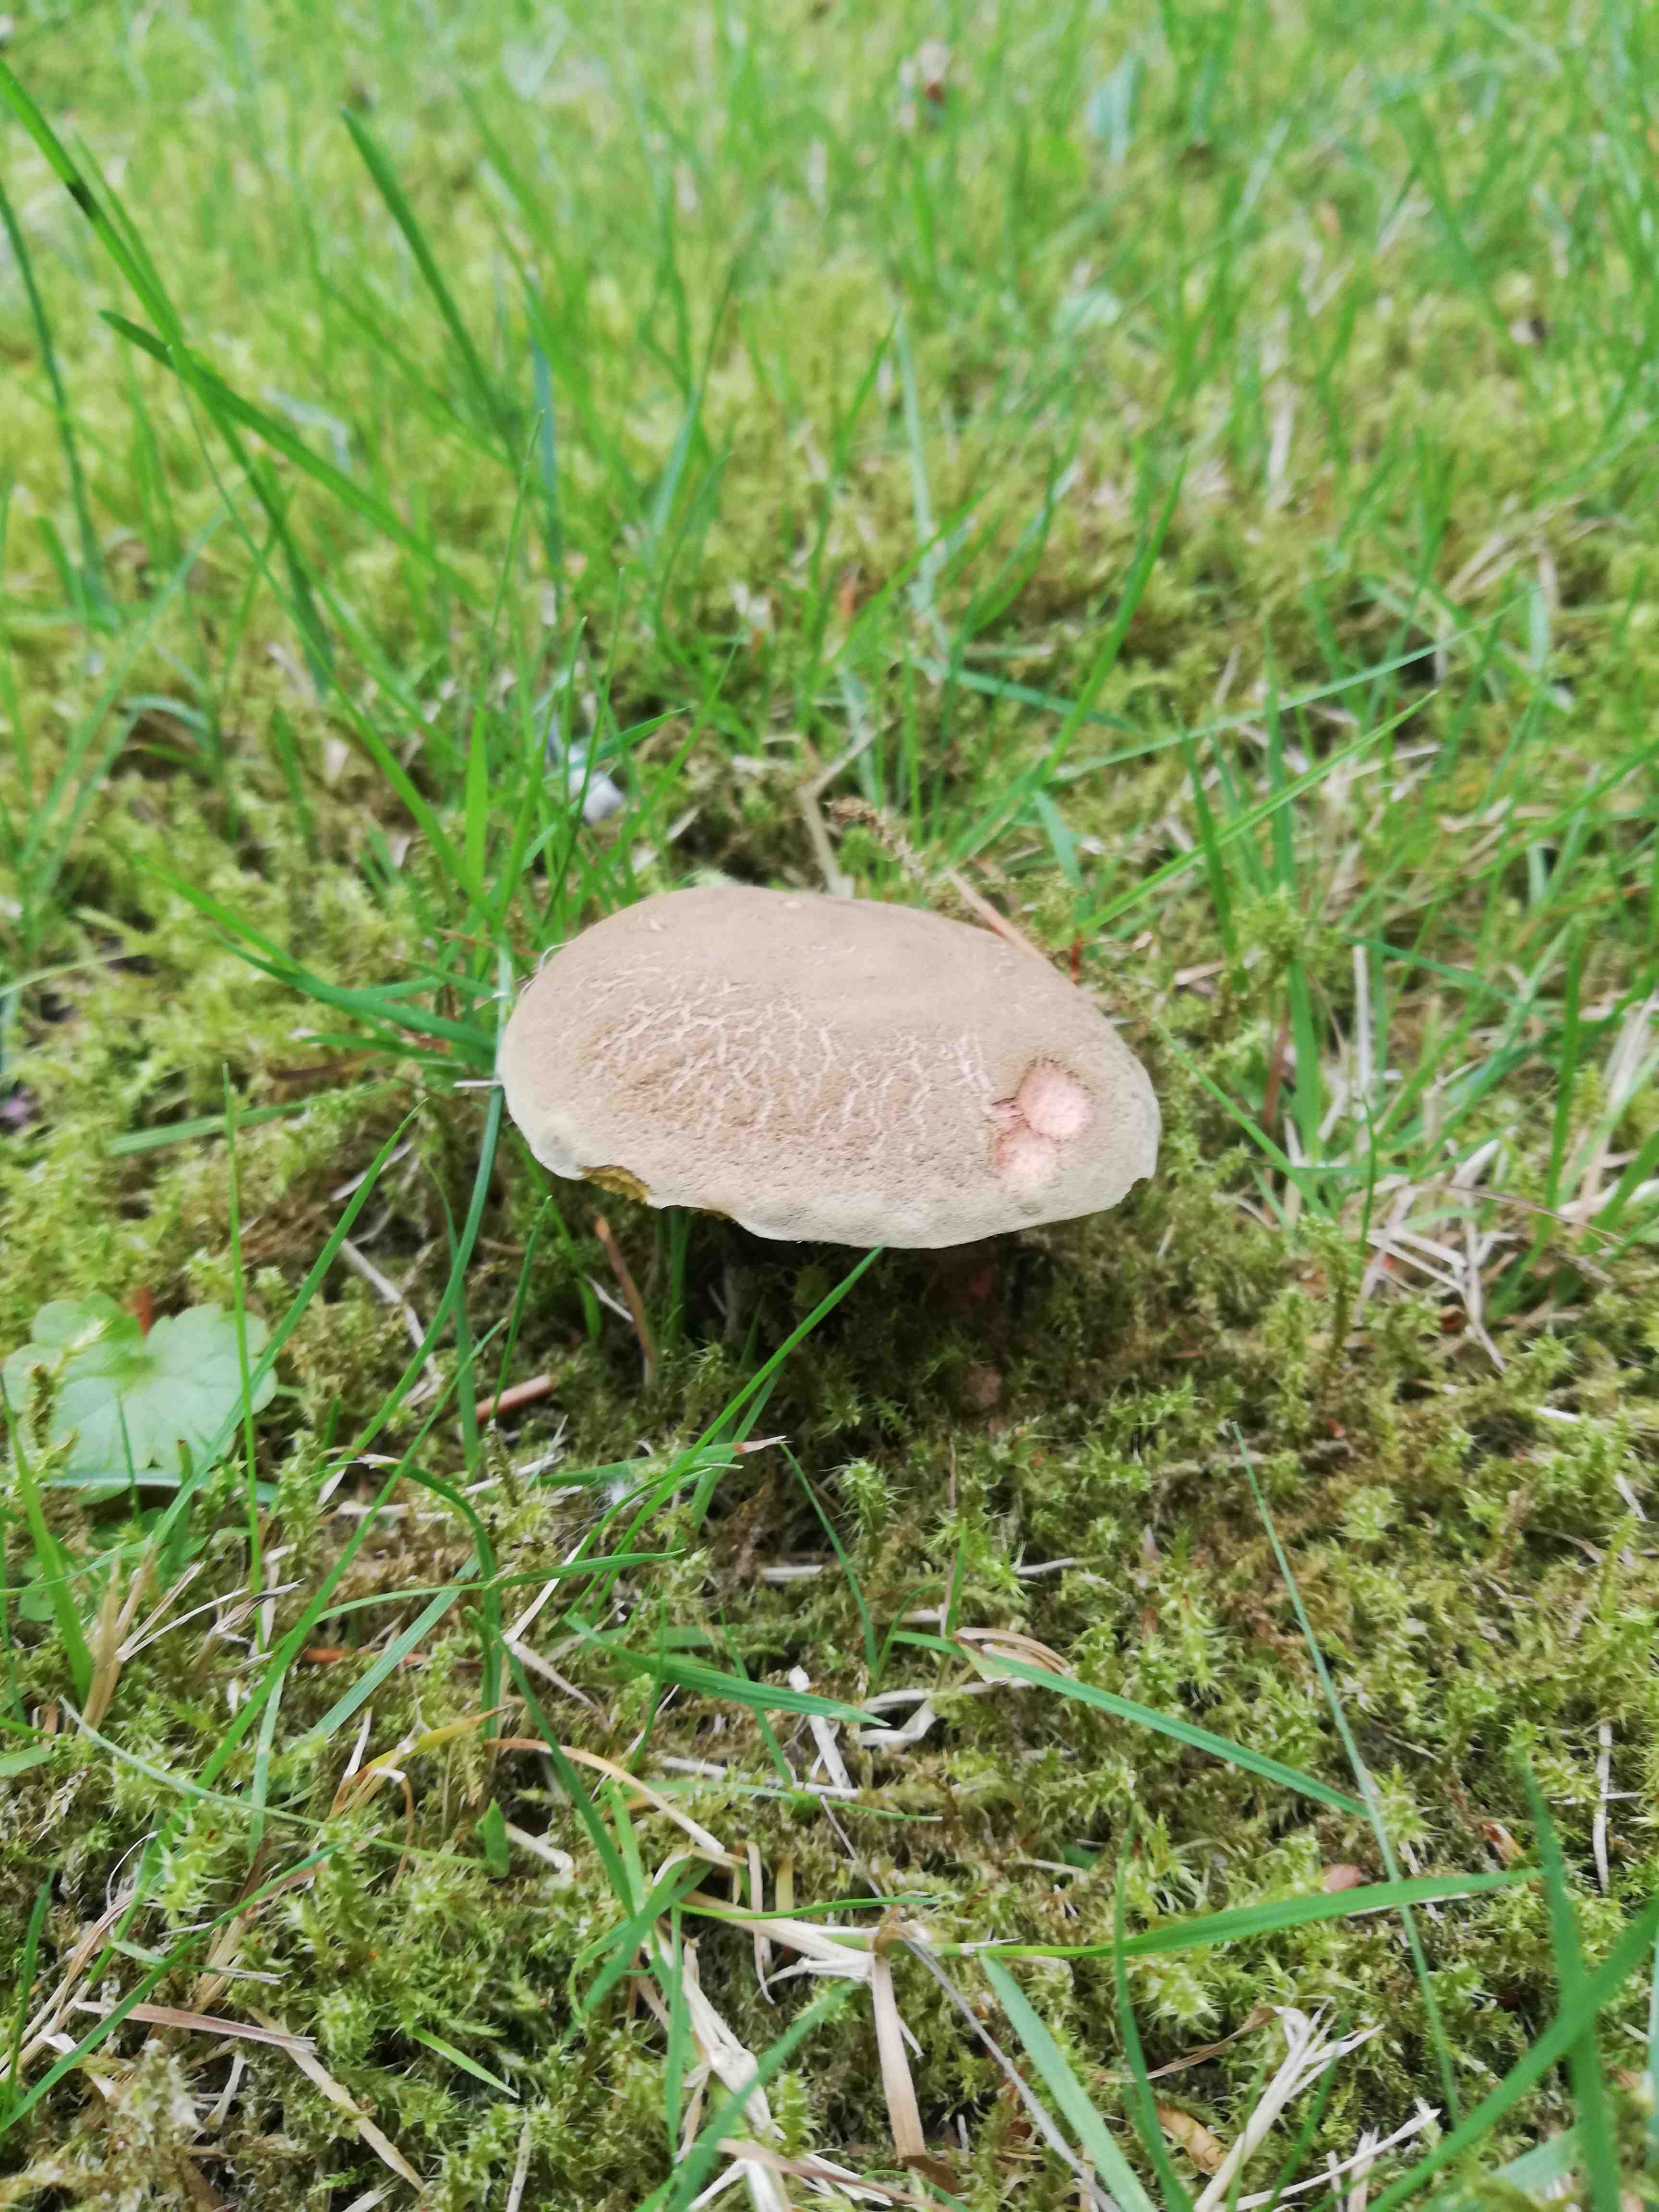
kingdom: Fungi
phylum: Basidiomycota
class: Agaricomycetes
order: Boletales
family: Boletaceae
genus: Xerocomellus
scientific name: Xerocomellus
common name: dværgrørhat
